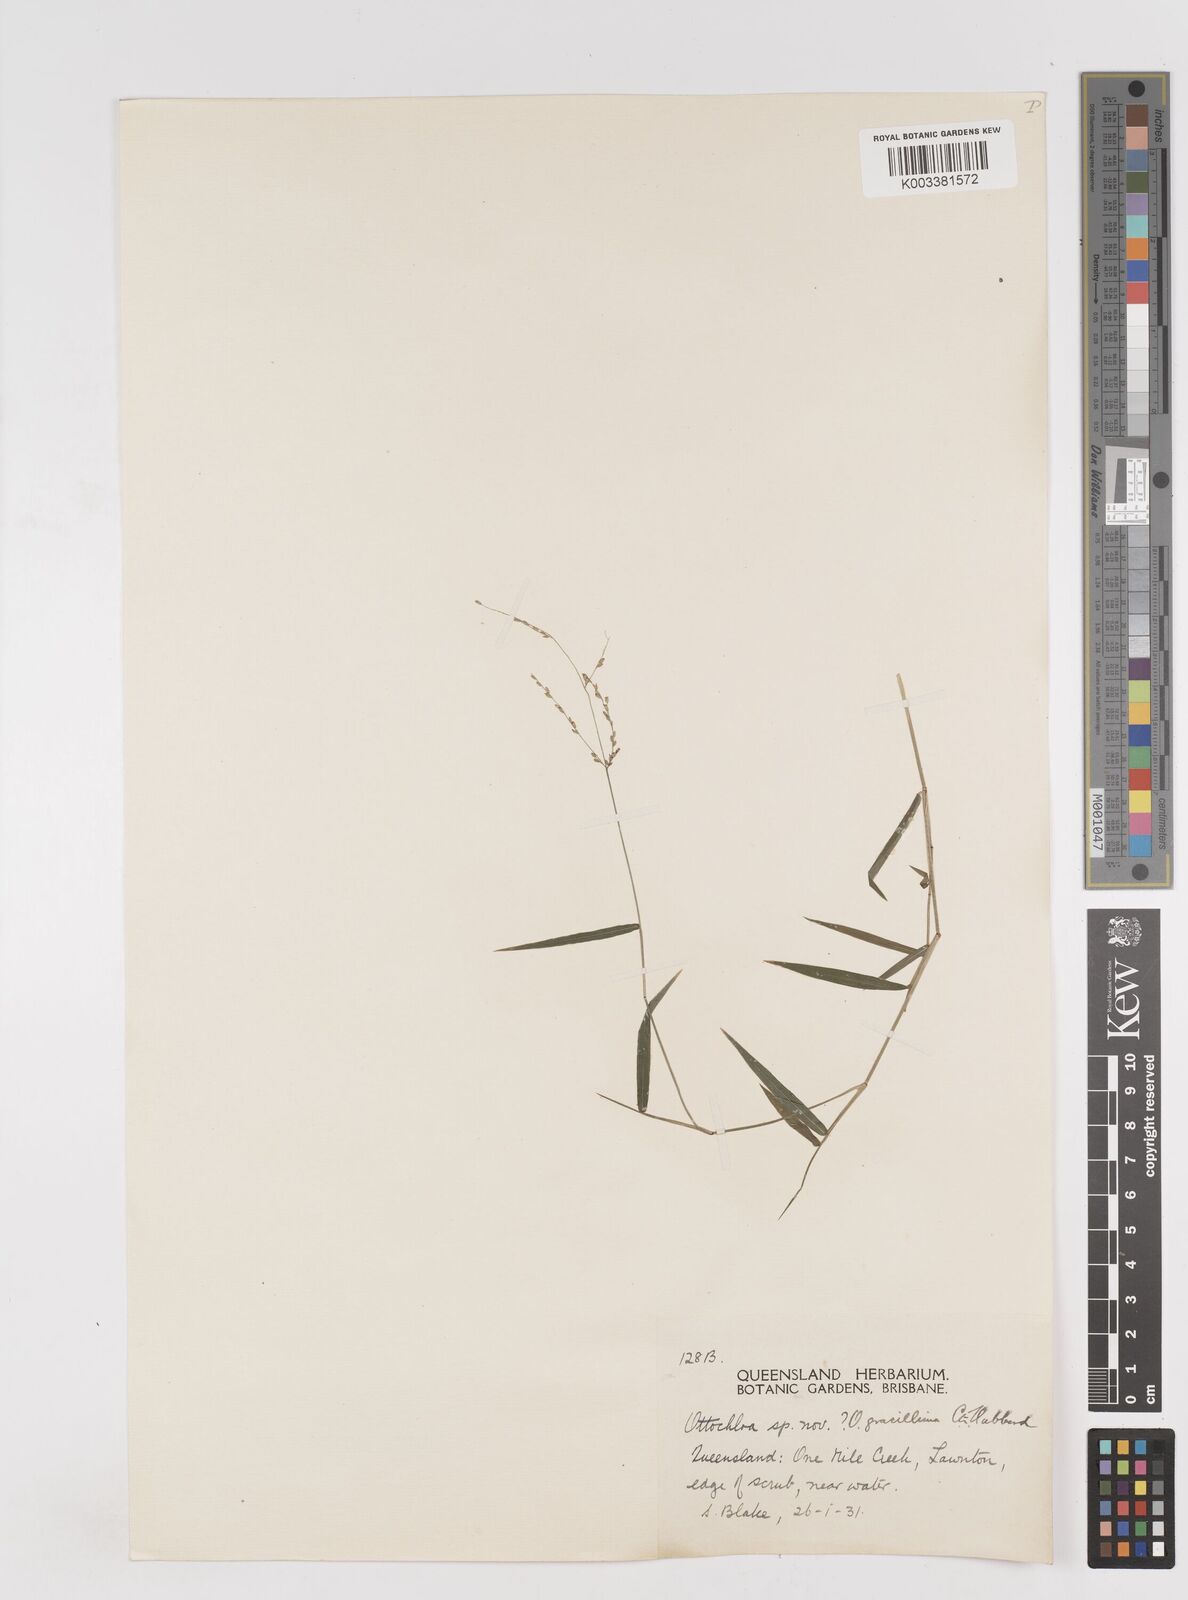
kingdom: Plantae
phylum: Tracheophyta
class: Liliopsida
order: Poales
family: Poaceae
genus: Ottochloa
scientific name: Ottochloa gracillima
